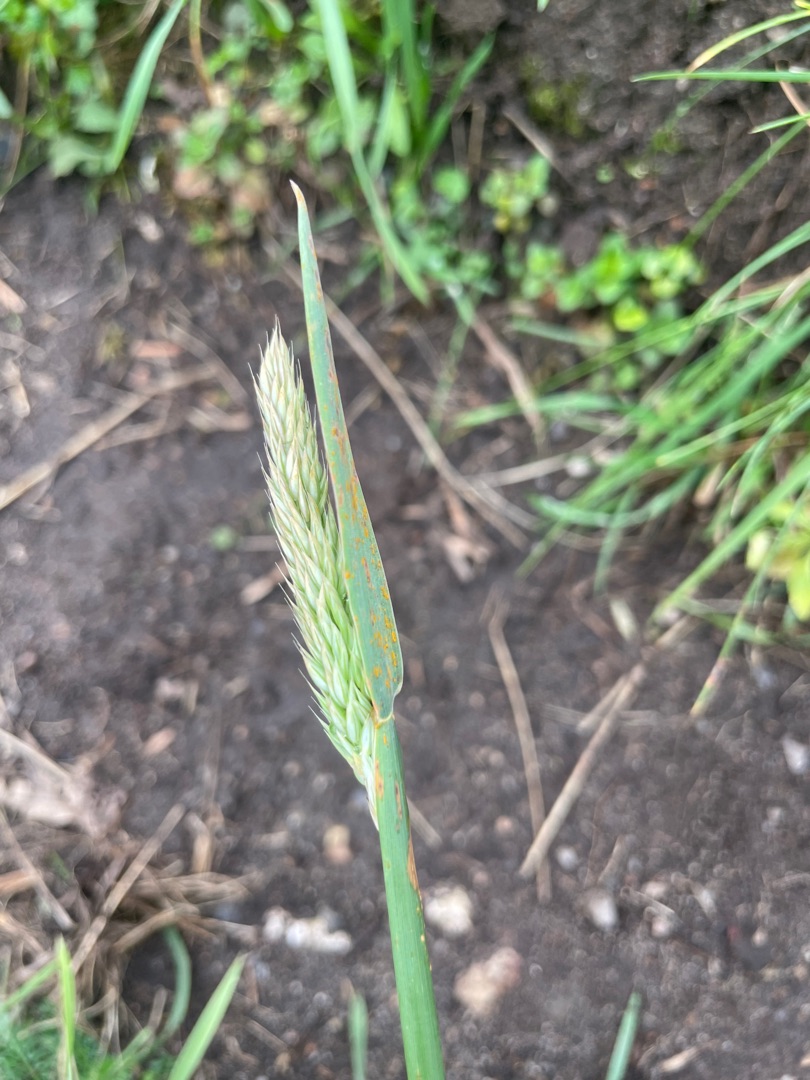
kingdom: Plantae
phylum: Tracheophyta
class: Liliopsida
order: Poales
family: Poaceae
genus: Holcus
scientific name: Holcus lanatus
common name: Fløjlsgræs
